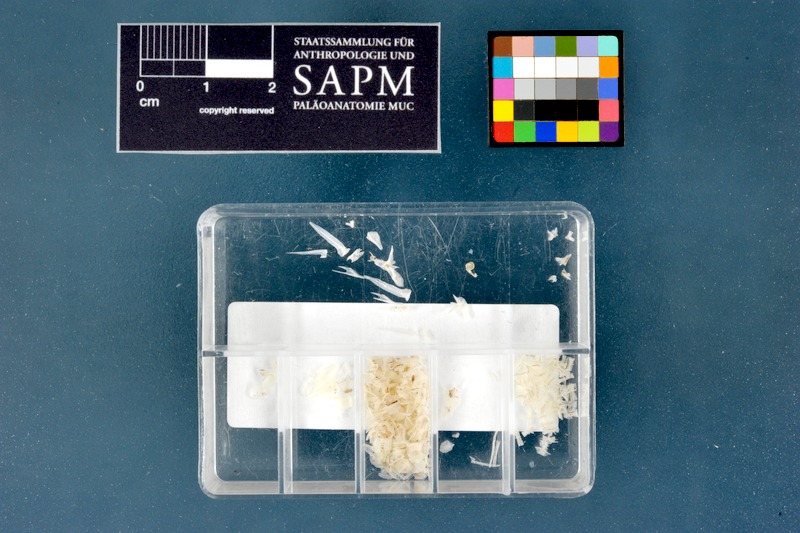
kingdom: Animalia
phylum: Chordata
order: Syngnathiformes
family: Syngnathidae
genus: Syngnathus
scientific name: Syngnathus taenionotus
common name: Darkflank pipefish
